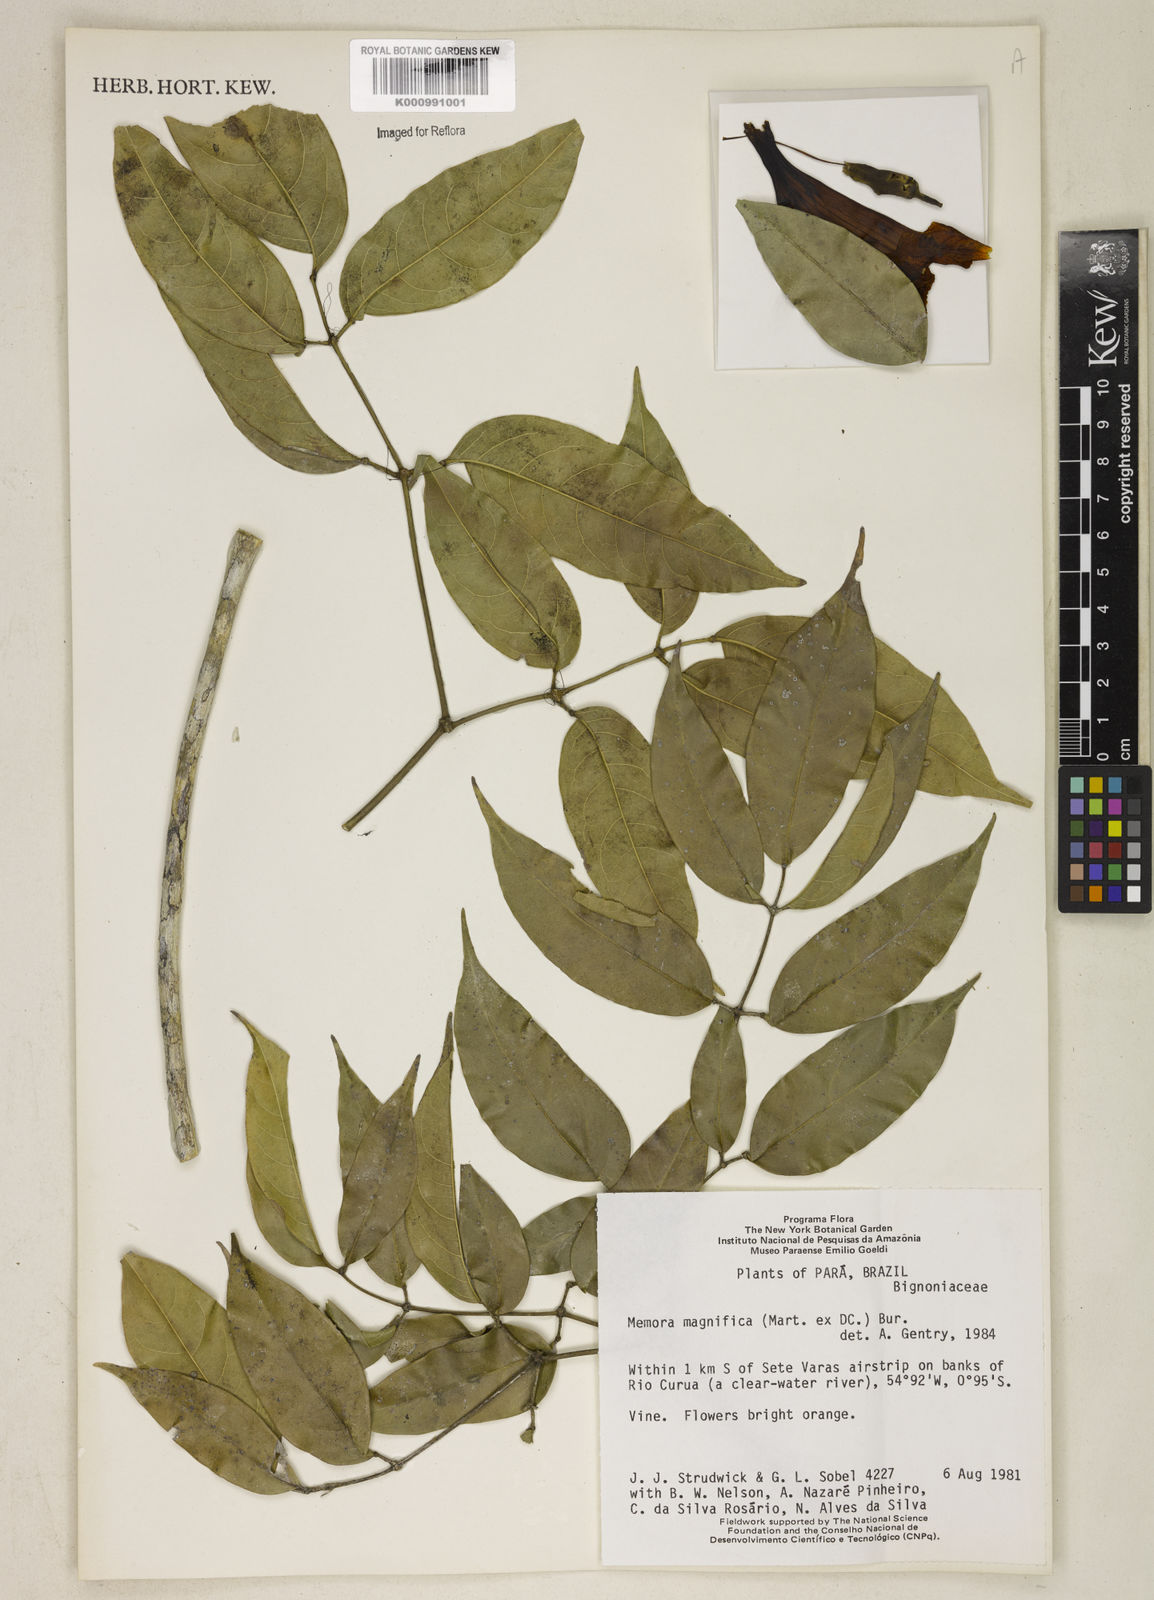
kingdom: Plantae
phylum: Tracheophyta
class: Magnoliopsida
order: Lamiales
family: Bignoniaceae
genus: Adenocalymma
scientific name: Adenocalymma magnificum
